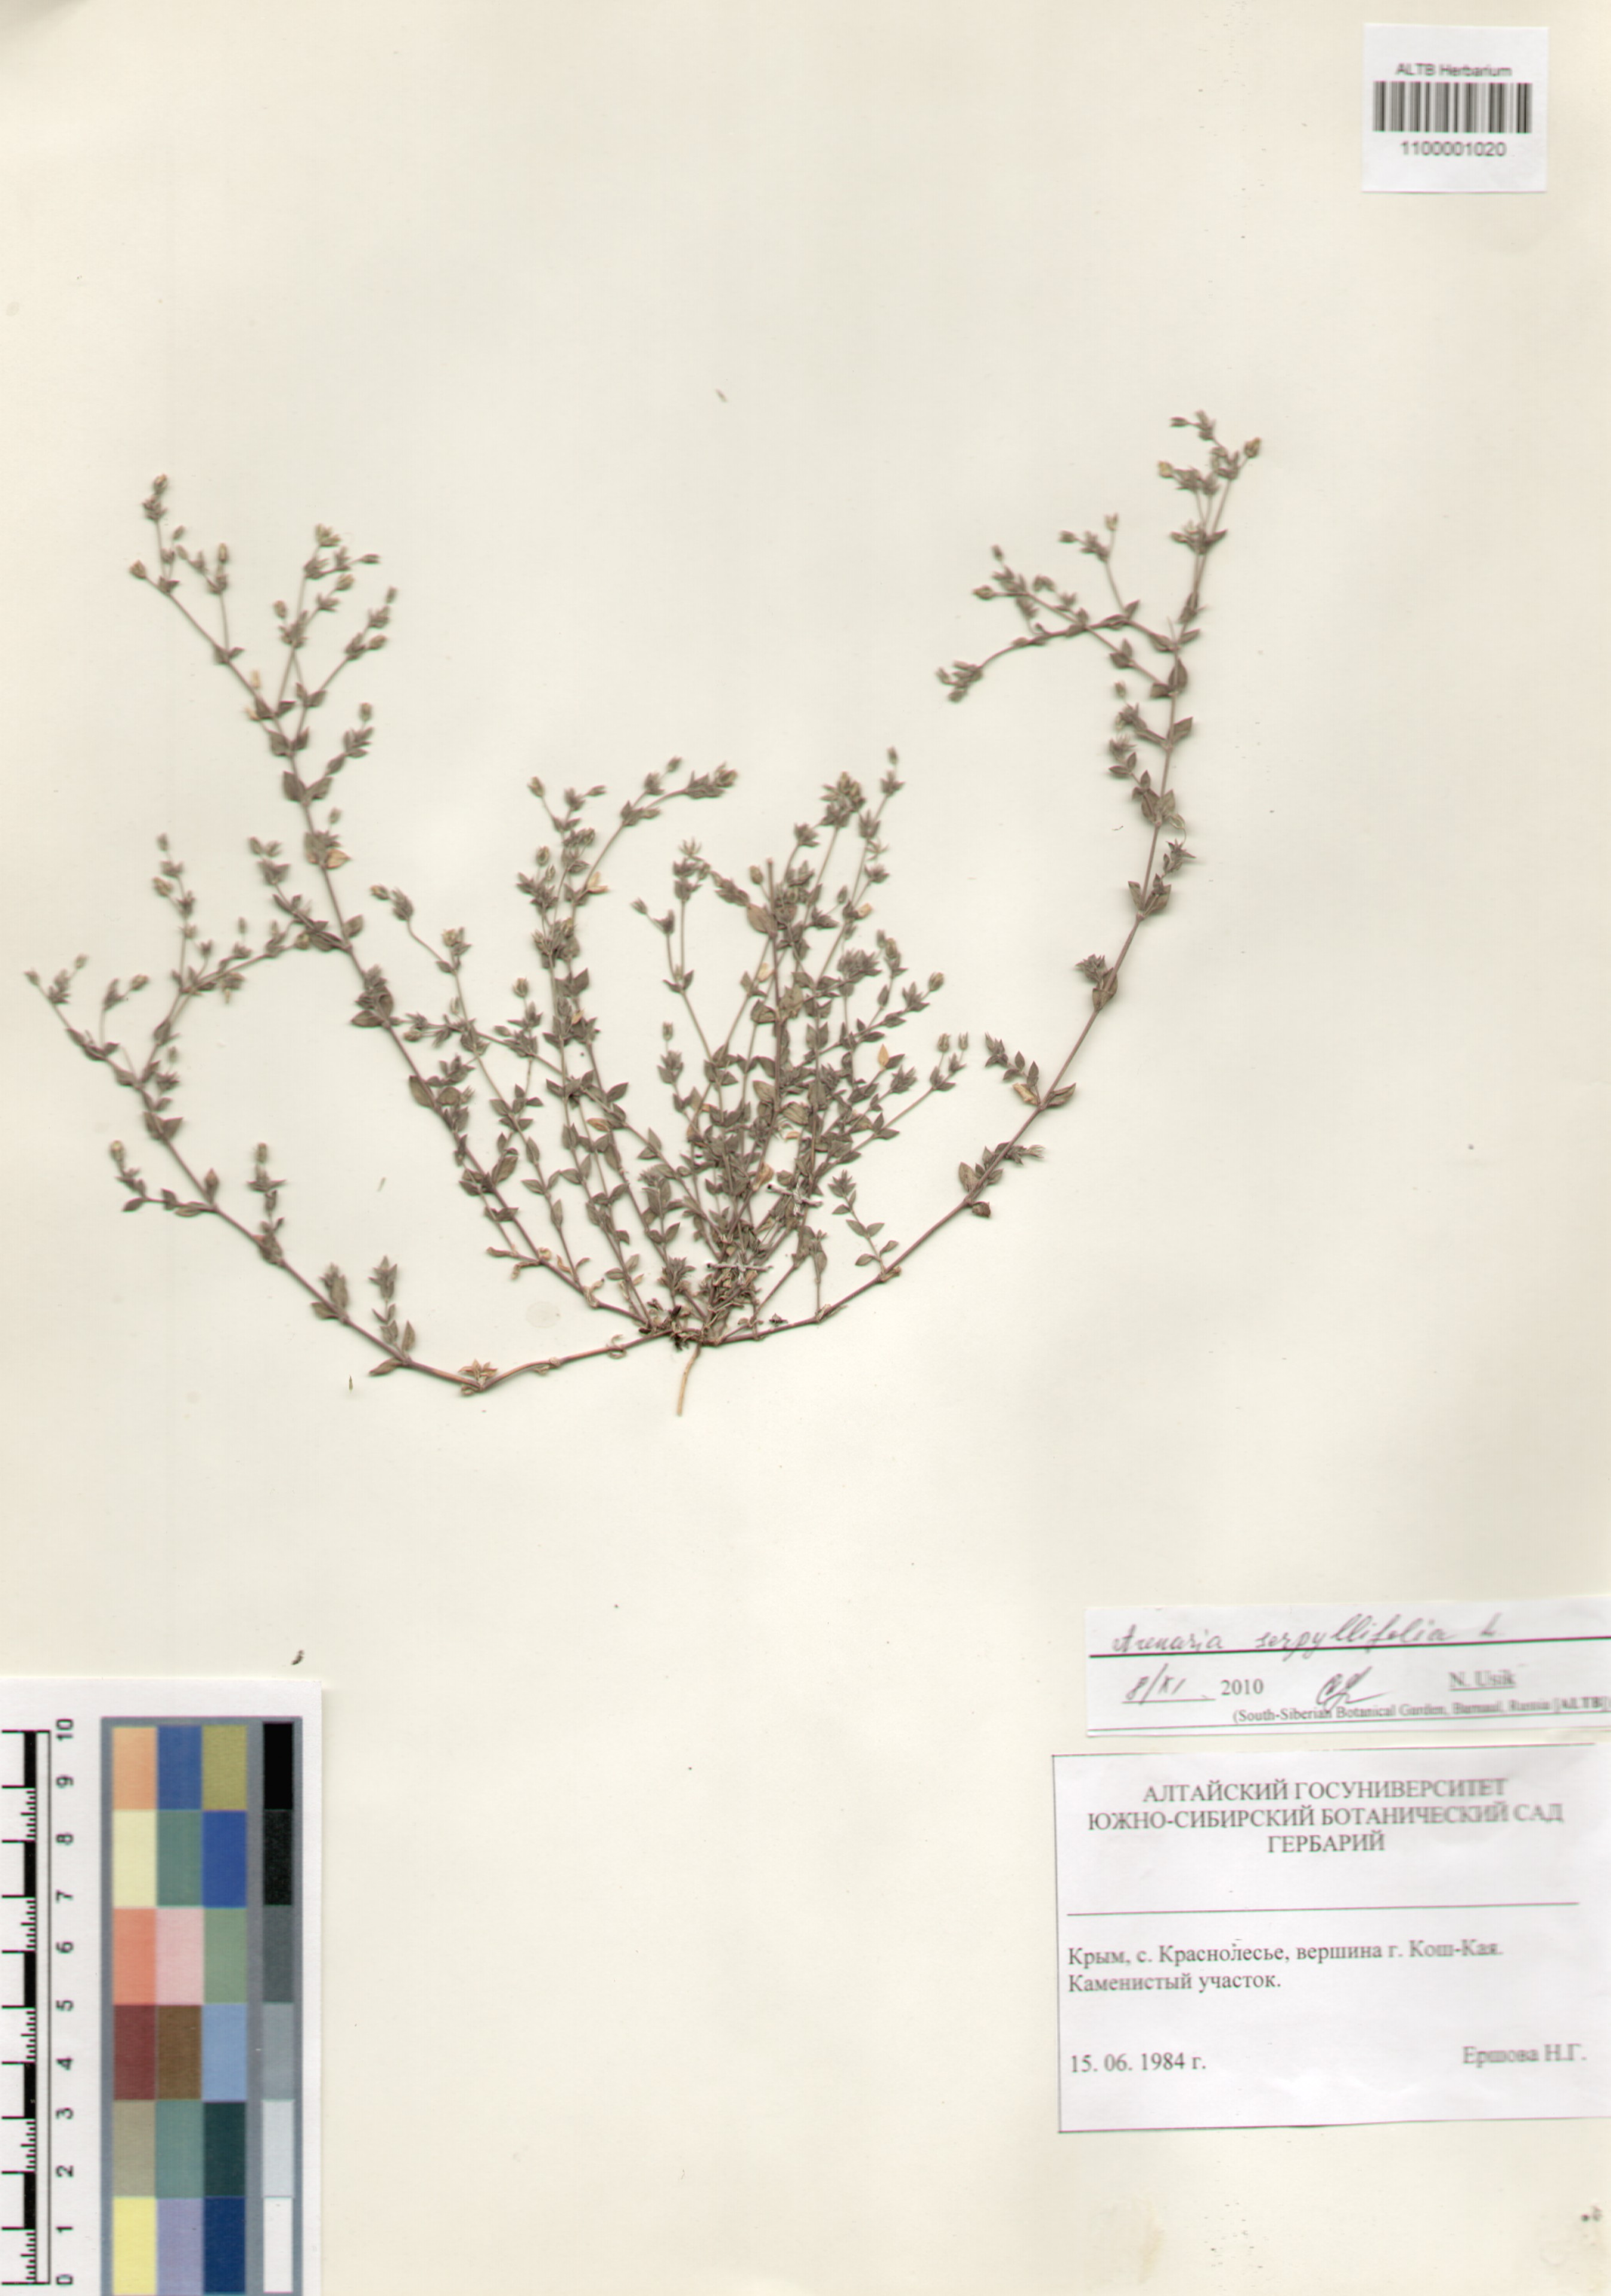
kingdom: Plantae
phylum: Tracheophyta
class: Magnoliopsida
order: Caryophyllales
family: Caryophyllaceae
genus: Arenaria
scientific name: Arenaria serpyllifolia
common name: Thyme-leaved sandwort
